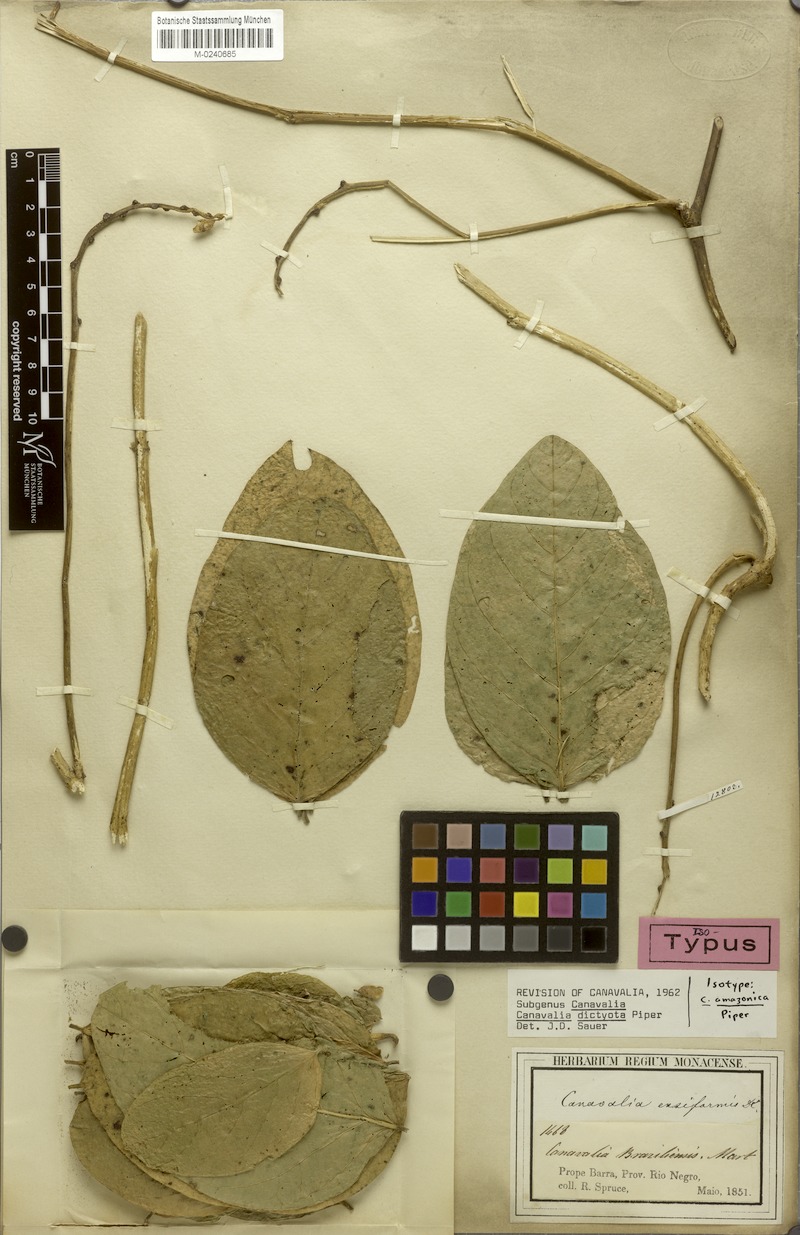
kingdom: Plantae
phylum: Tracheophyta
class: Magnoliopsida
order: Fabales
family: Fabaceae
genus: Canavalia
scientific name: Canavalia brasiliensis
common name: Barbicou-bean
